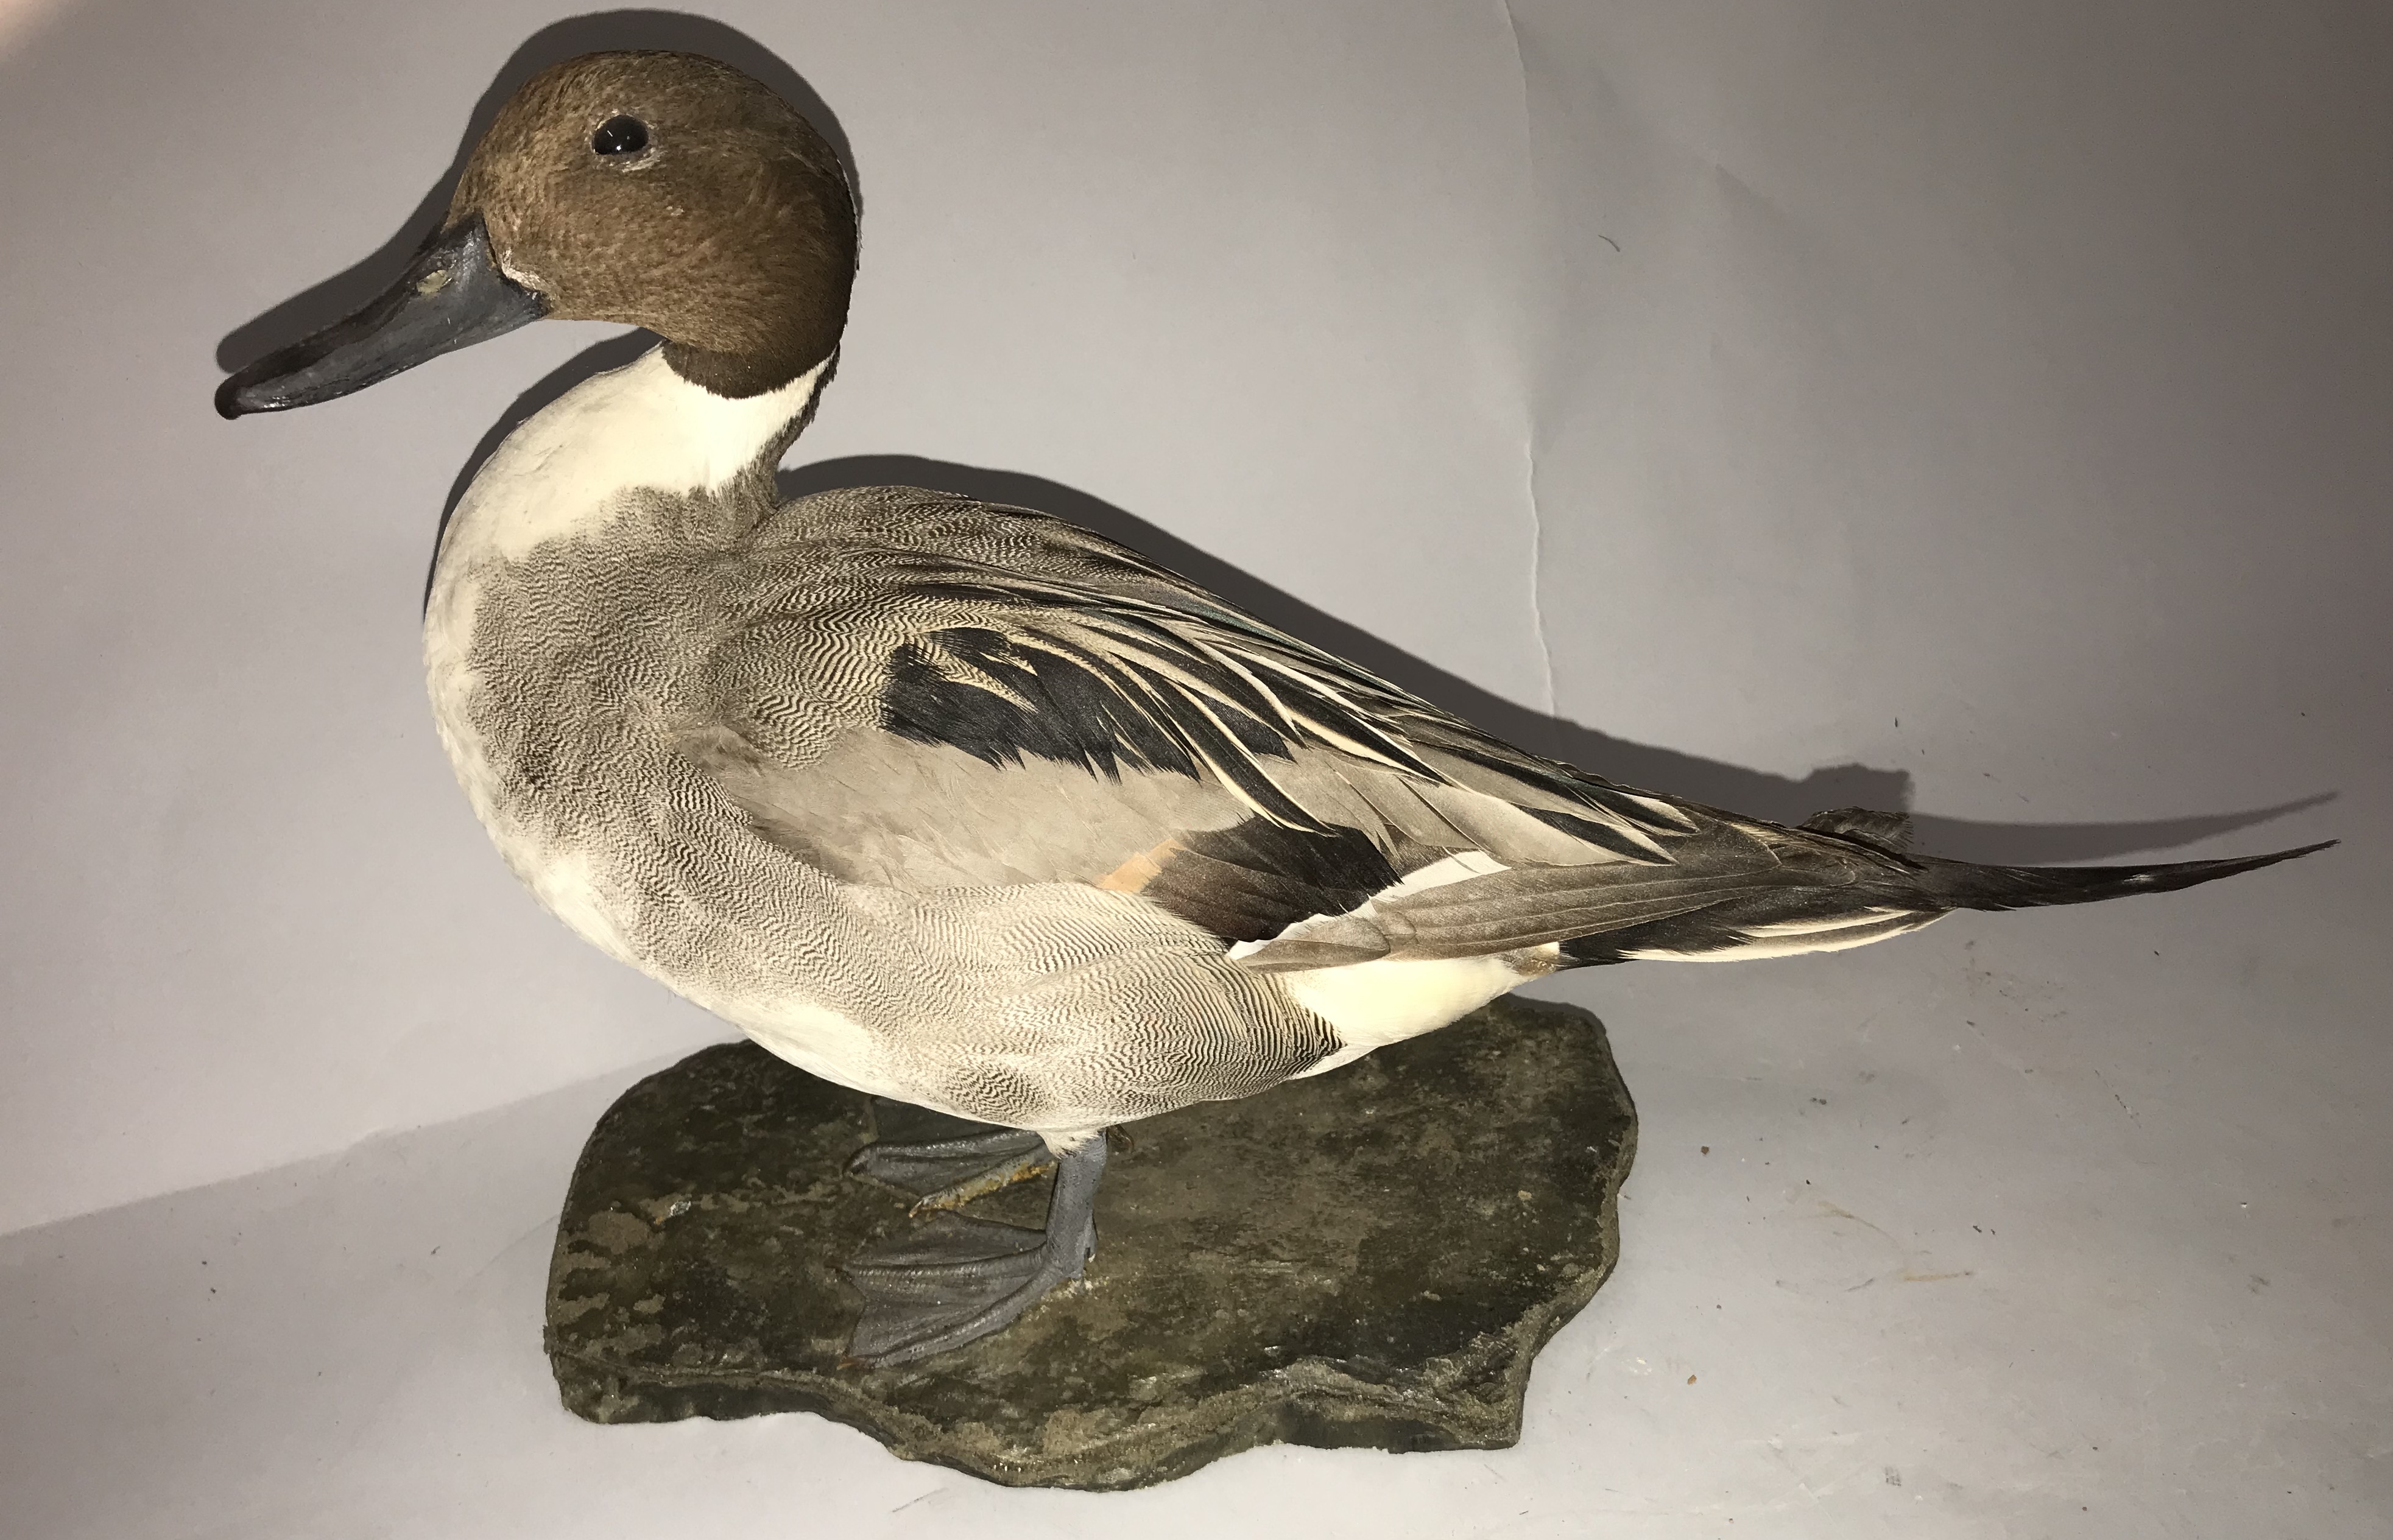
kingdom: Animalia
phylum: Chordata
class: Aves
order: Anseriformes
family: Anatidae
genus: Anas
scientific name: Anas acuta
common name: Northern pintail
